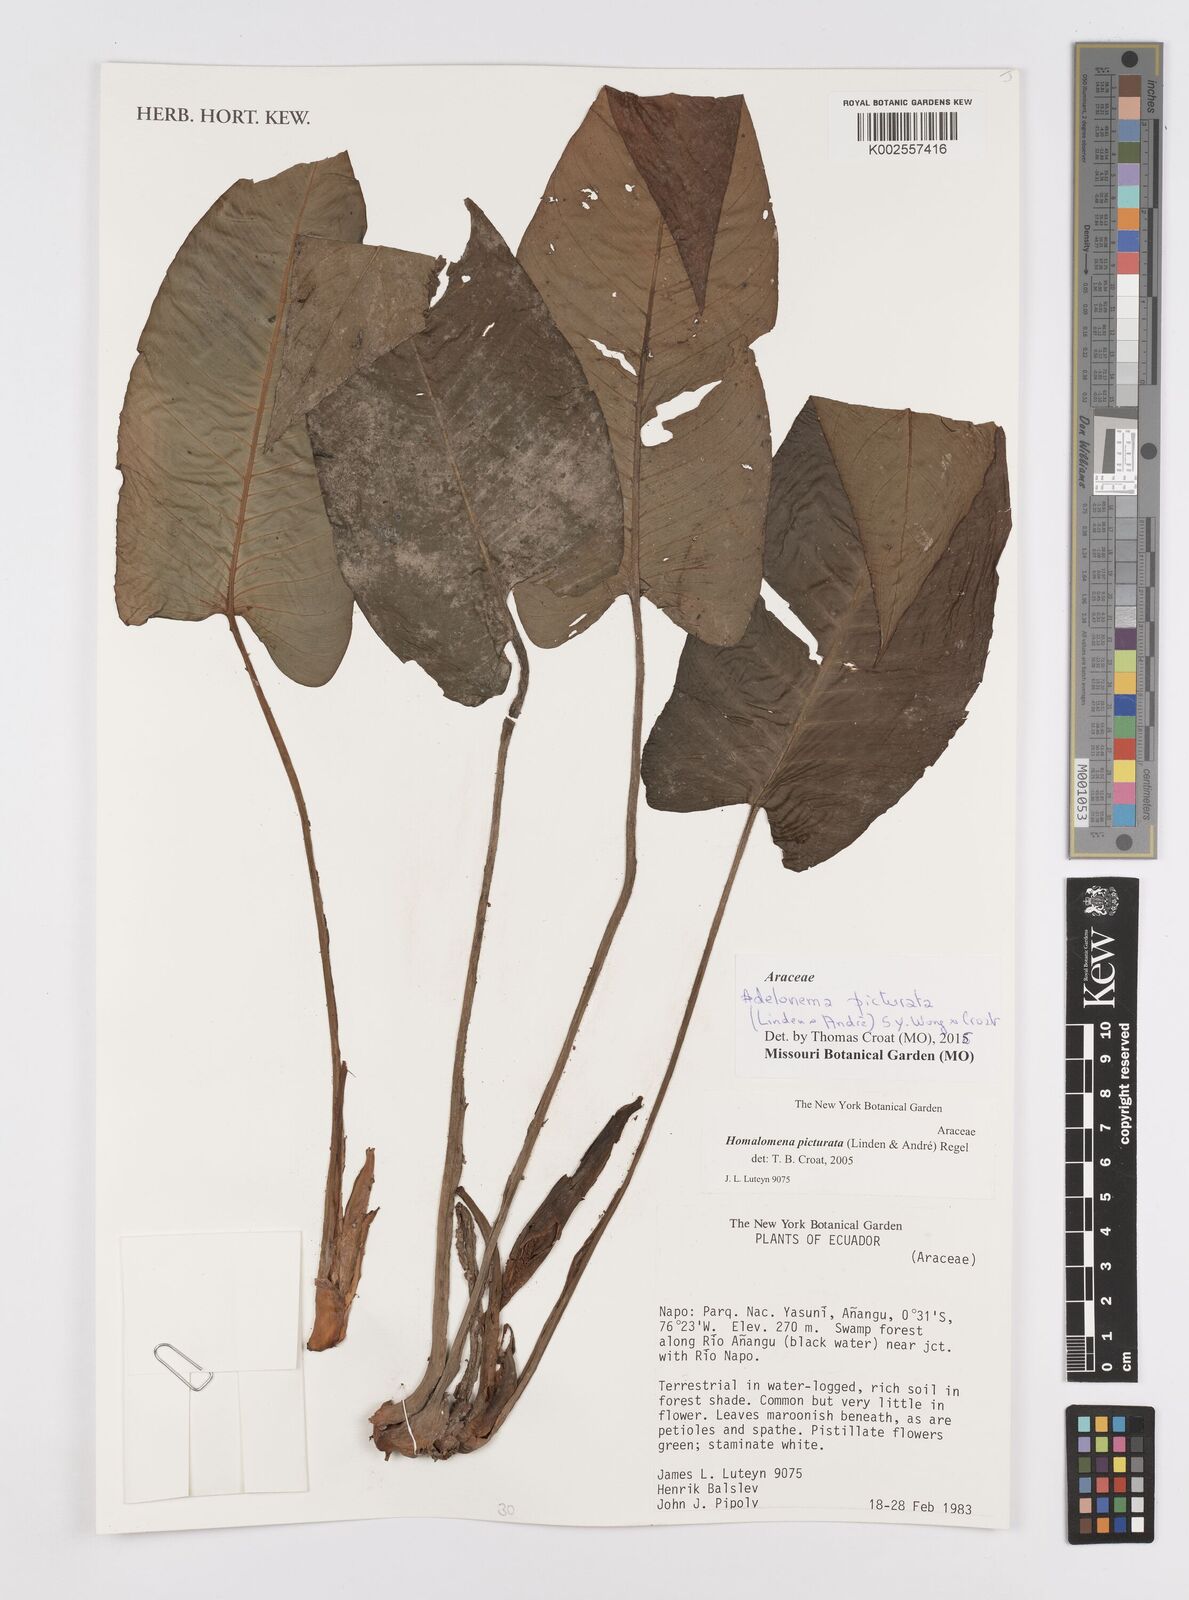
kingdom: Plantae
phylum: Tracheophyta
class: Liliopsida
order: Alismatales
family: Araceae
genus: Adelonema
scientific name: Adelonema picturatum
